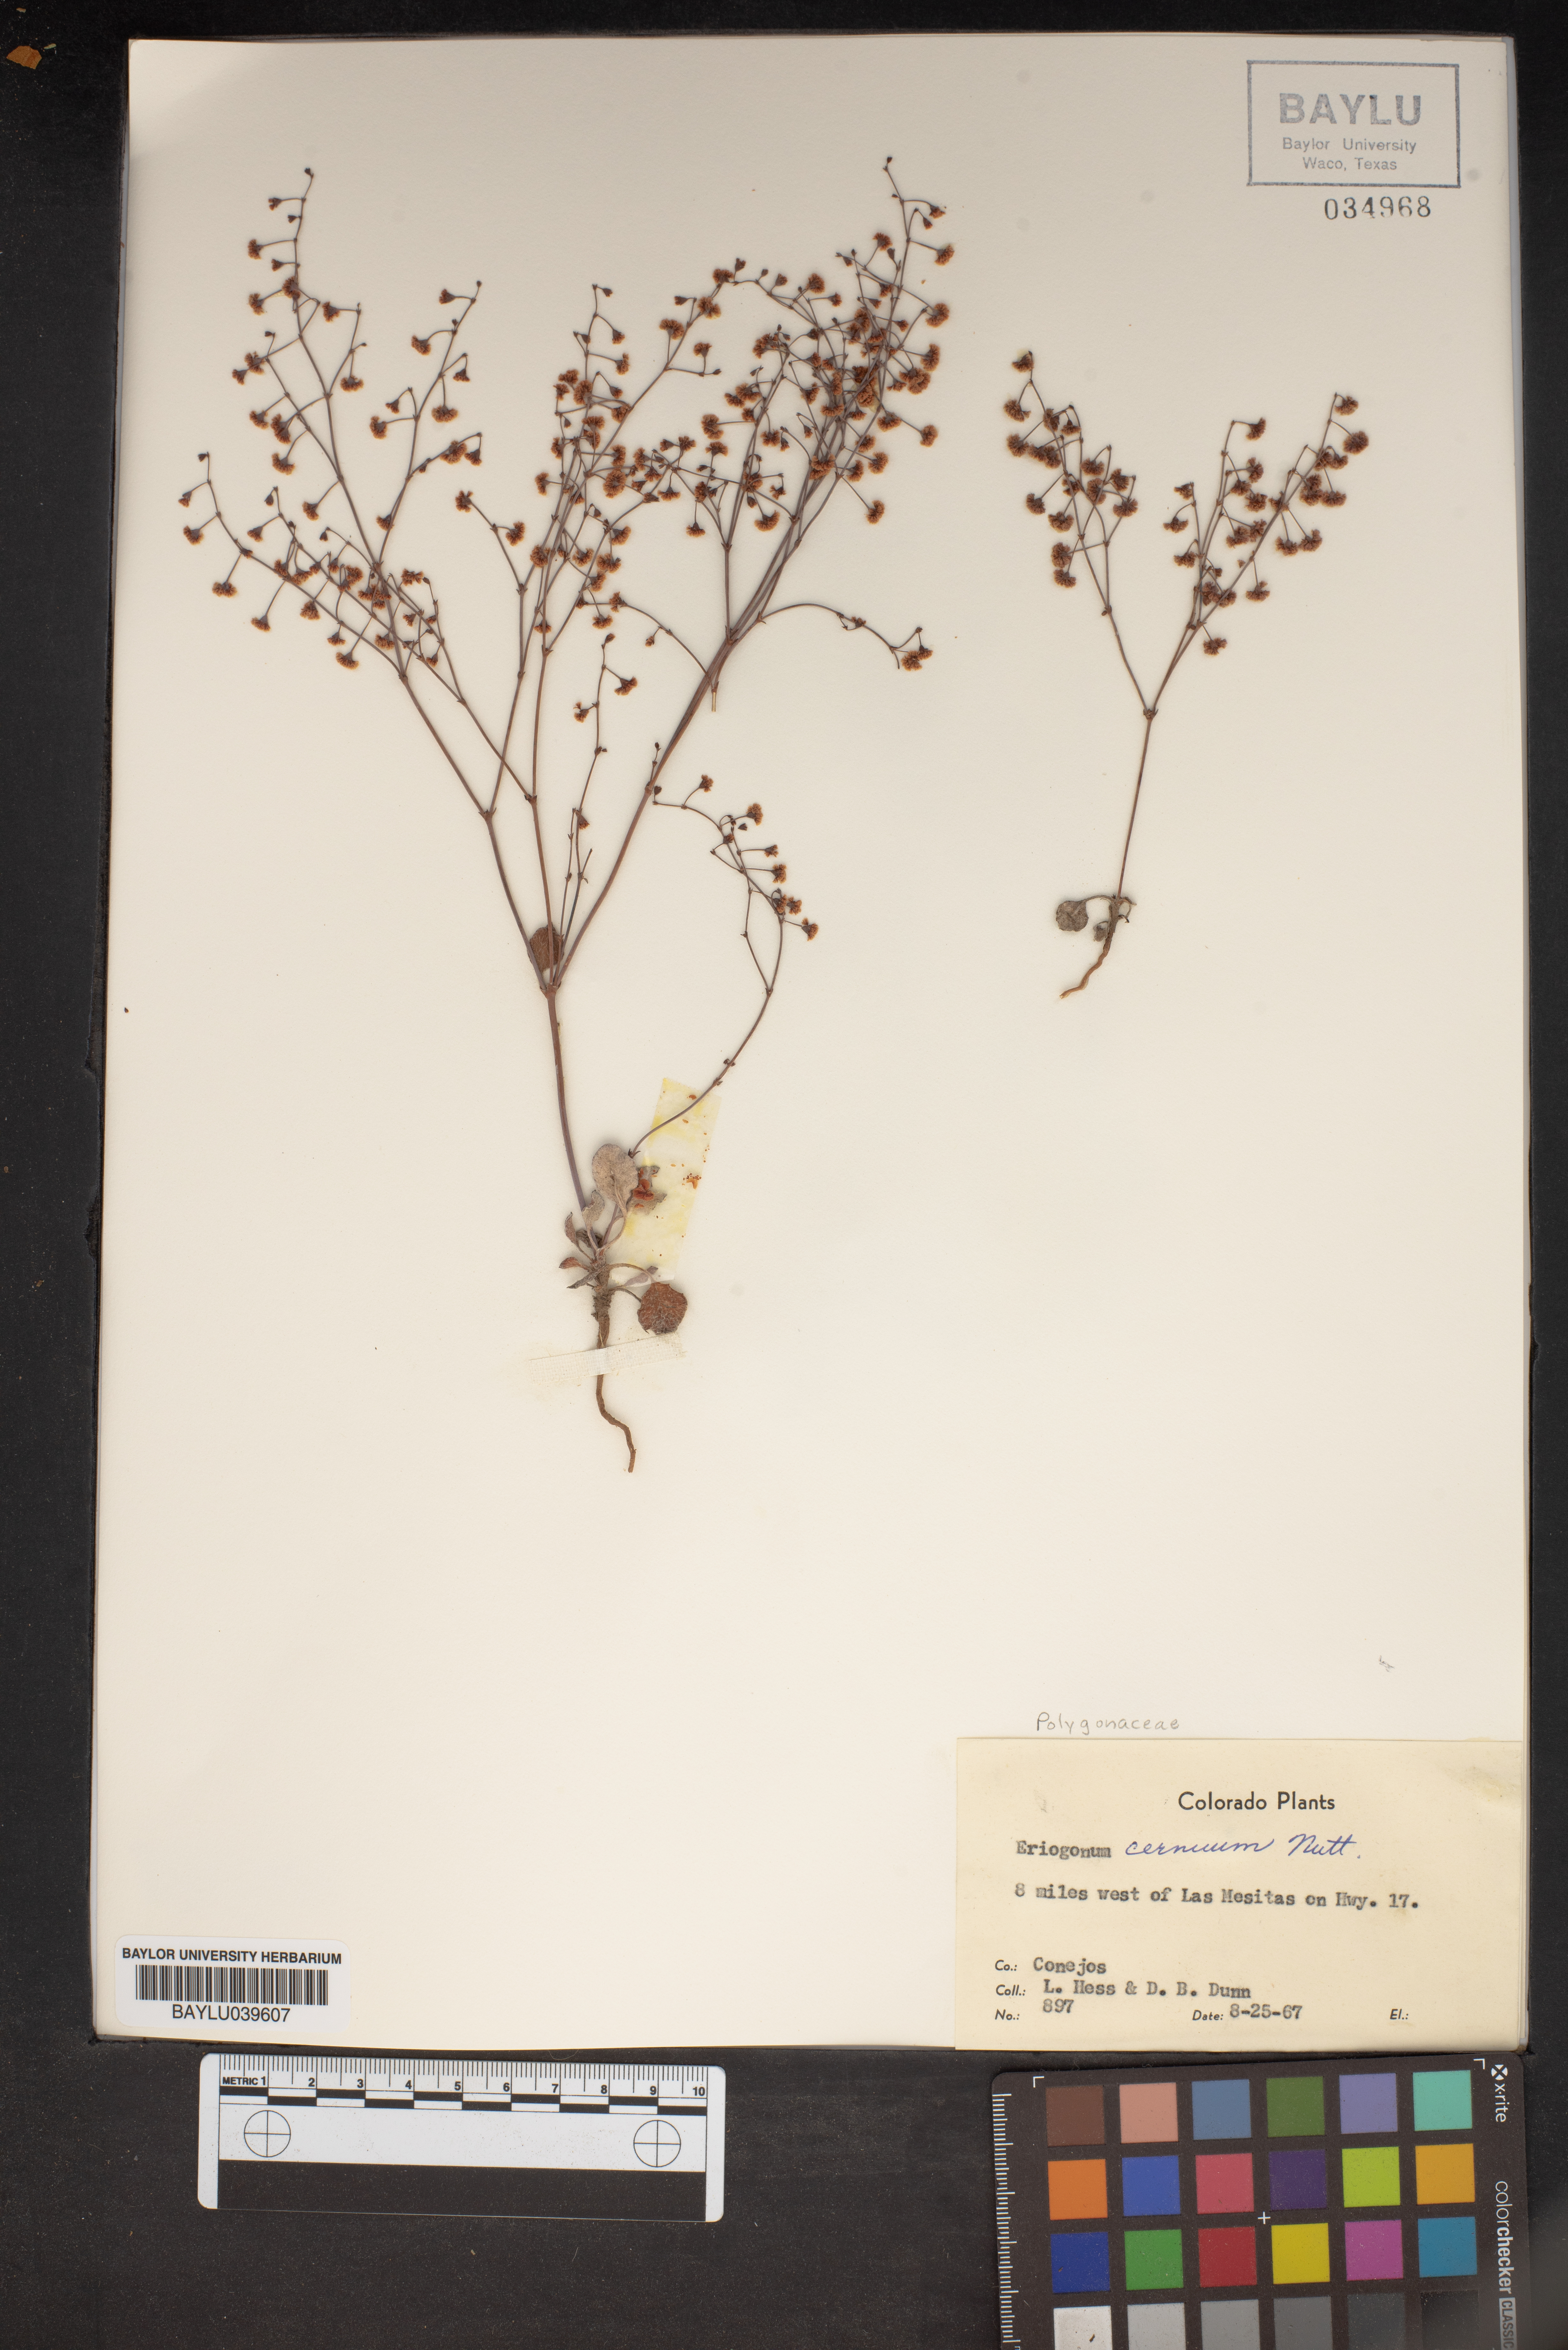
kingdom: Plantae
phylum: Tracheophyta
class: Magnoliopsida
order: Caryophyllales
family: Polygonaceae
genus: Eriogonum
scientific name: Eriogonum cernuum
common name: Nodding wild buckwheat
